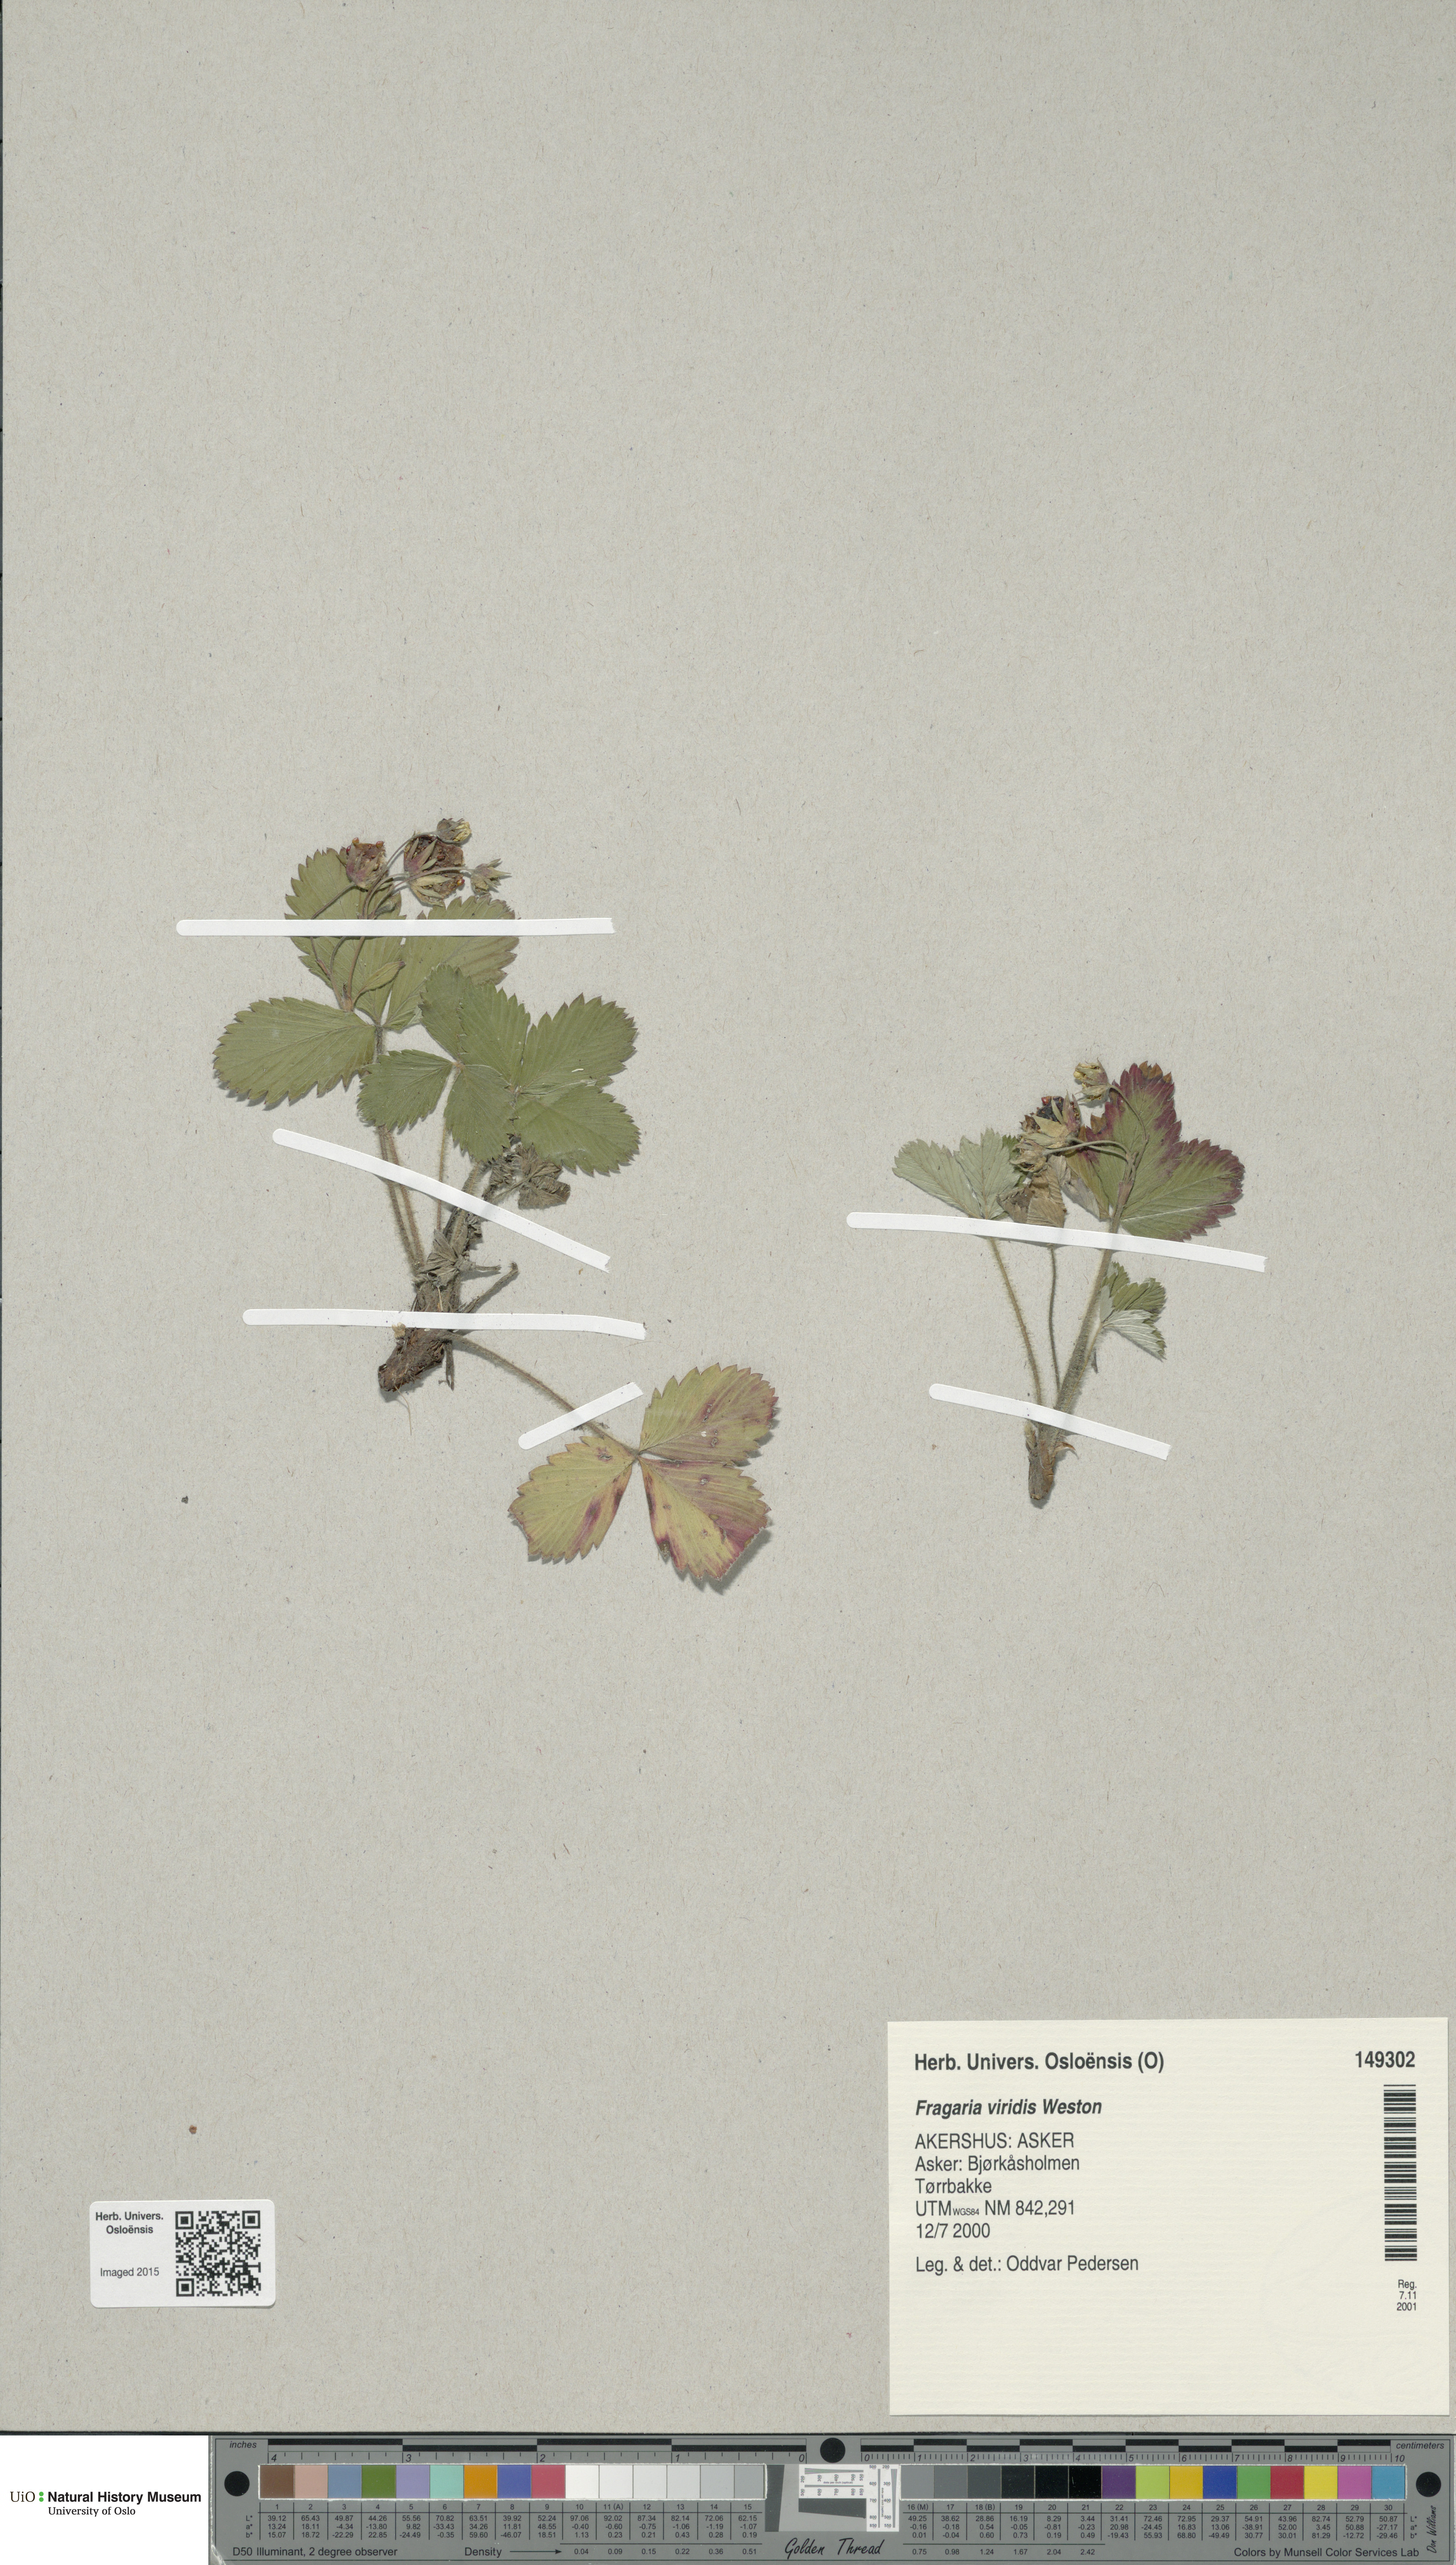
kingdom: Plantae
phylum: Tracheophyta
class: Magnoliopsida
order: Rosales
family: Rosaceae
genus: Fragaria
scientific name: Fragaria viridis
